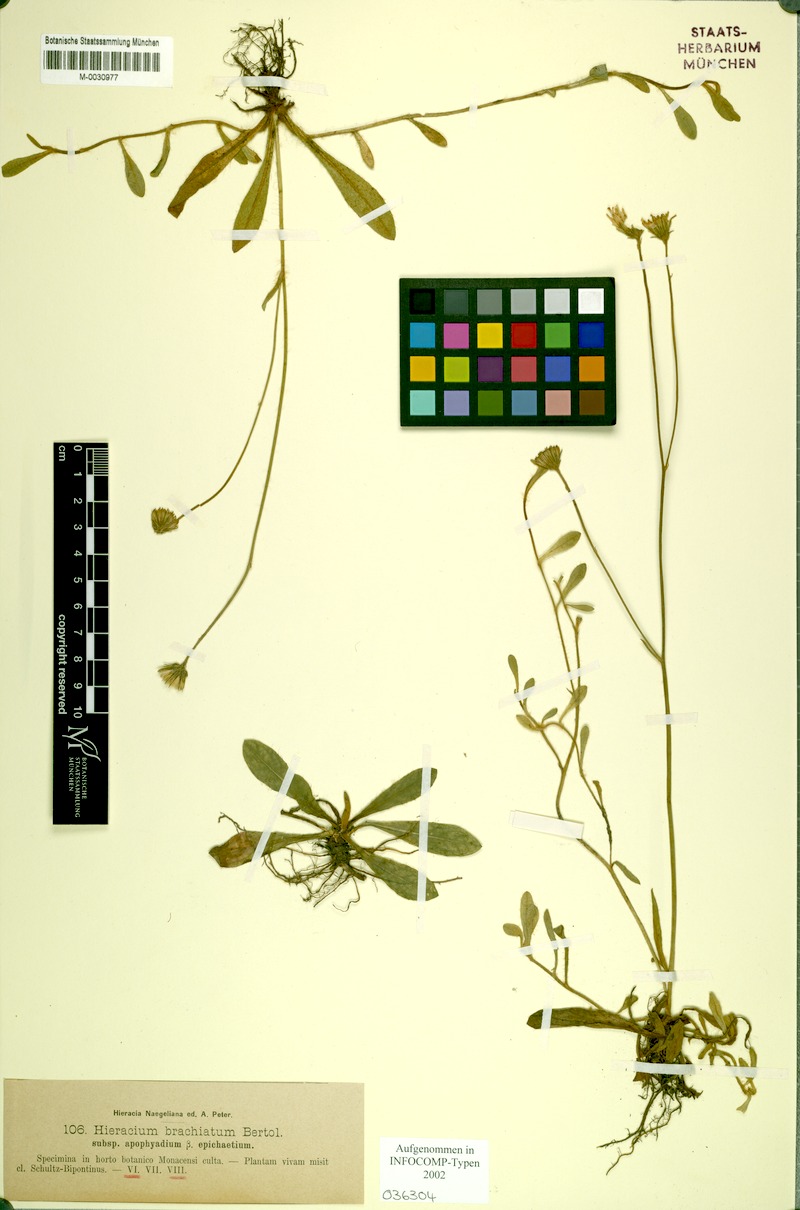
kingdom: Plantae
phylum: Tracheophyta
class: Magnoliopsida
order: Asterales
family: Asteraceae
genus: Pilosella
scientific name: Pilosella acutifolia
